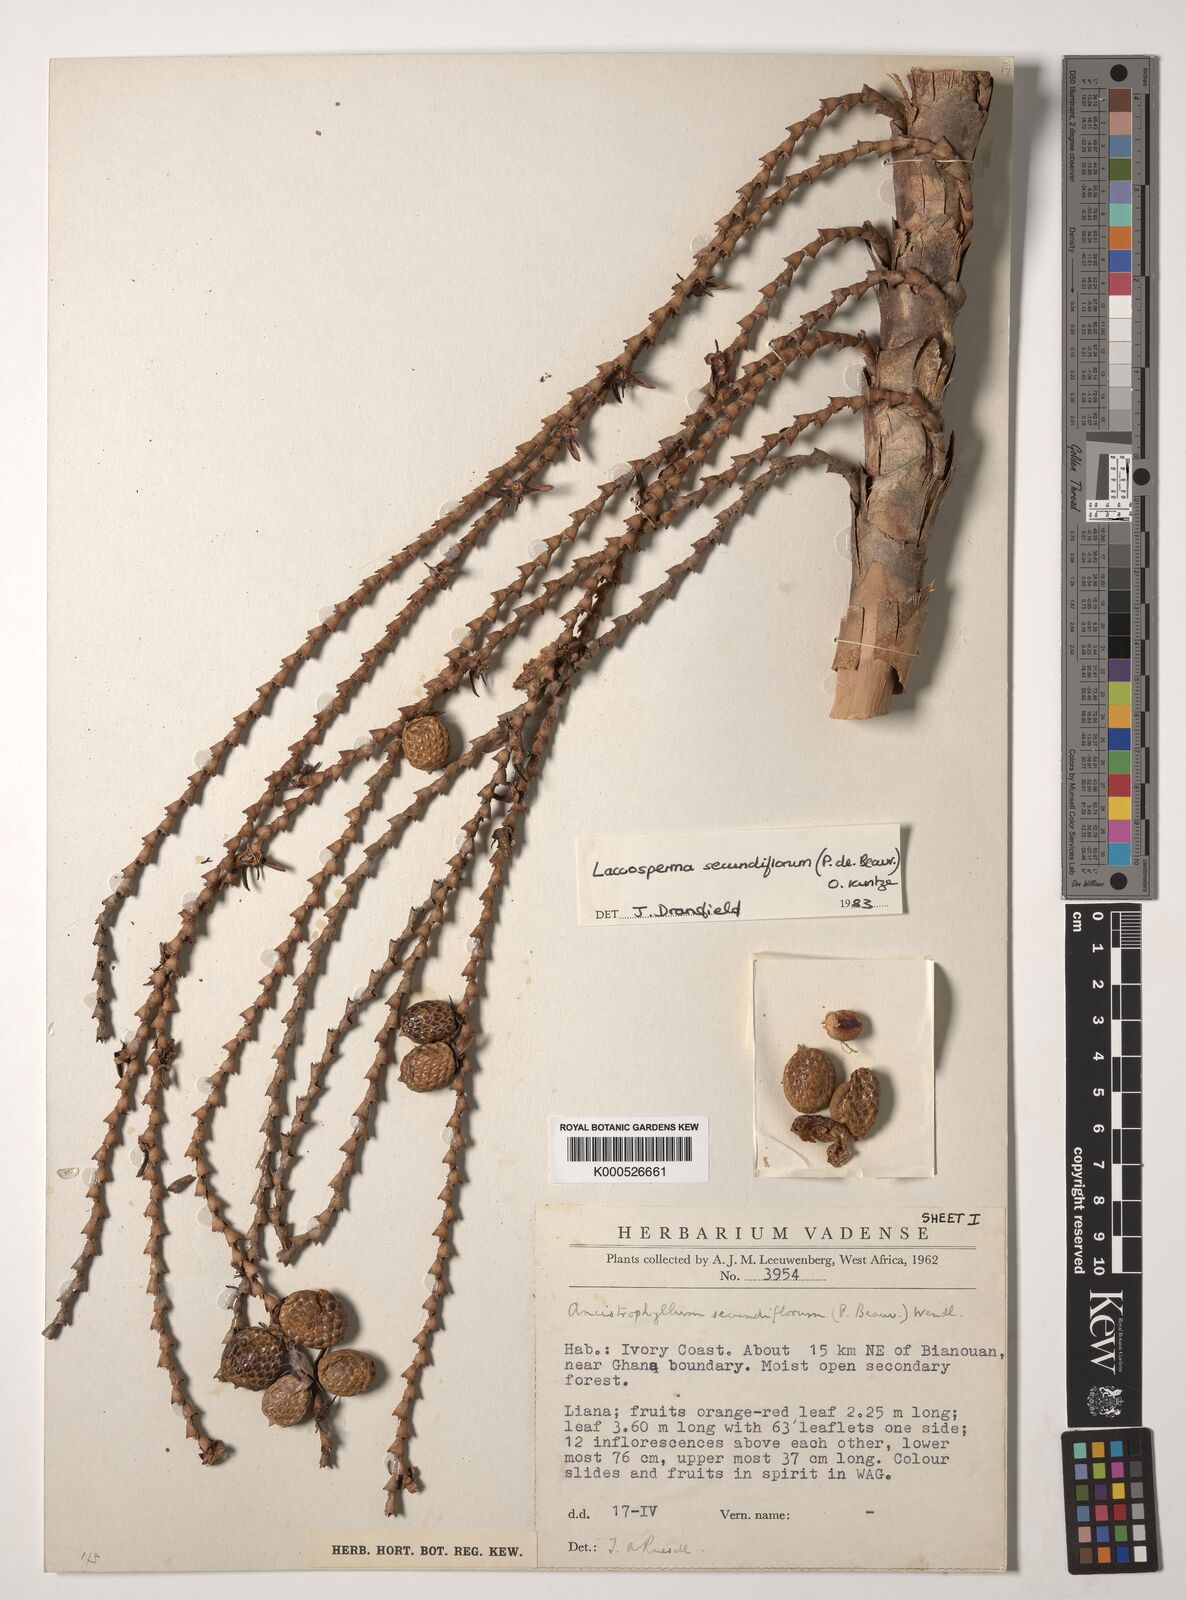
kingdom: Plantae
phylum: Tracheophyta
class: Liliopsida
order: Arecales
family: Arecaceae
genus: Laccosperma
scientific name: Laccosperma secundiflorum
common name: Rattan
